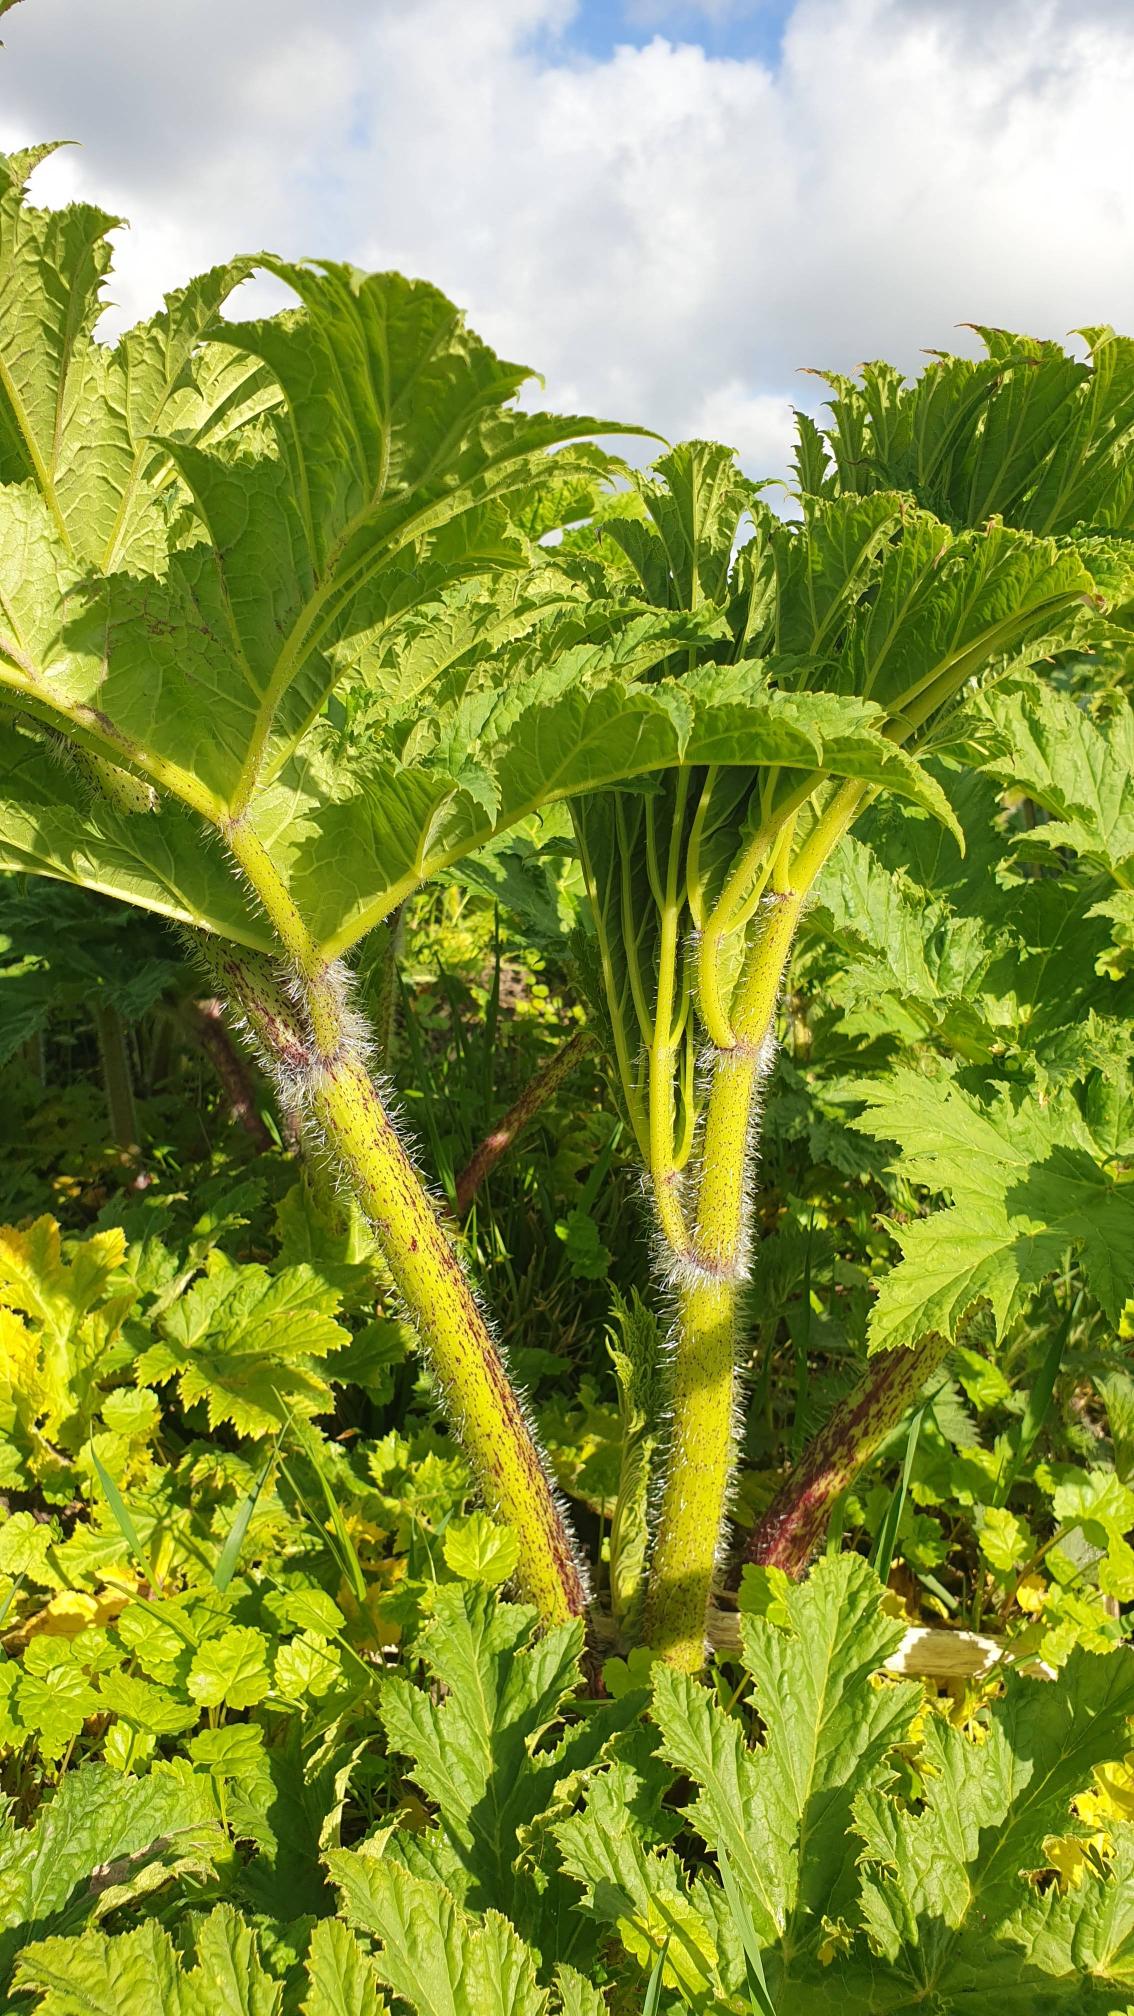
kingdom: Plantae
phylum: Tracheophyta
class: Magnoliopsida
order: Apiales
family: Apiaceae
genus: Heracleum
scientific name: Heracleum mantegazzianum
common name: Kæmpe-bjørneklo
